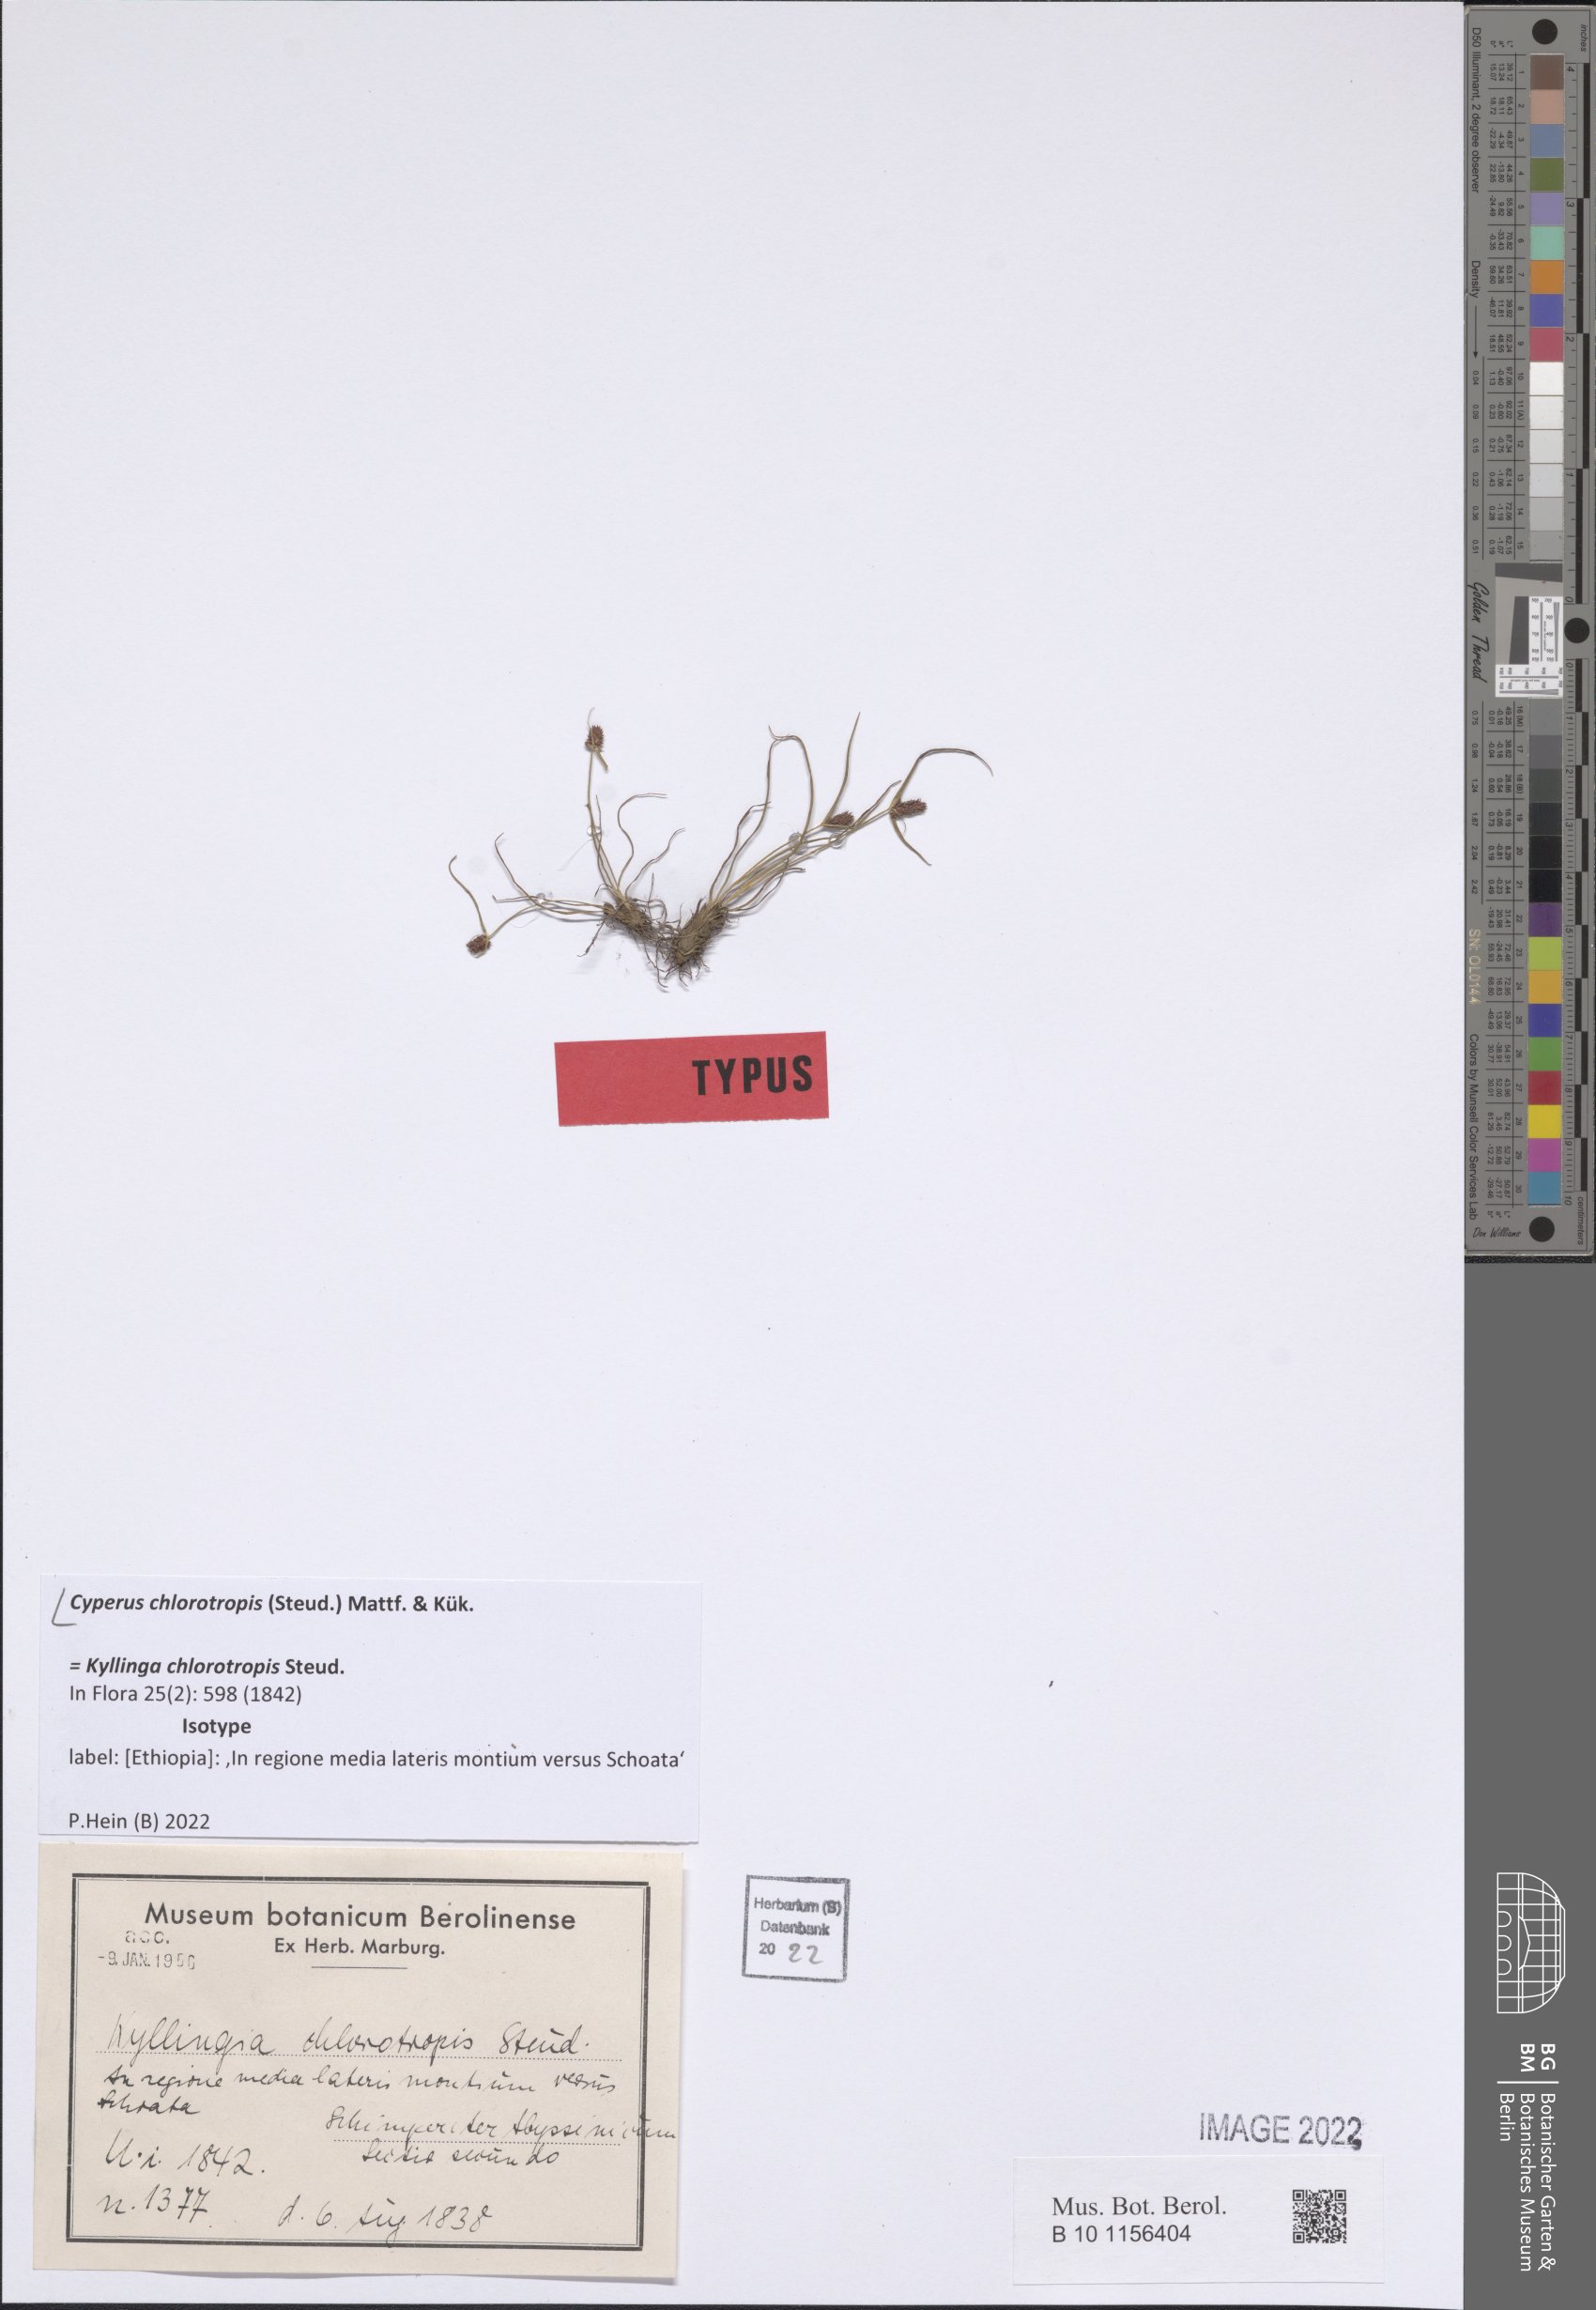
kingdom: Plantae
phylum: Tracheophyta
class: Liliopsida
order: Poales
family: Cyperaceae
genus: Cyperus
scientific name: Cyperus chlorotropis
